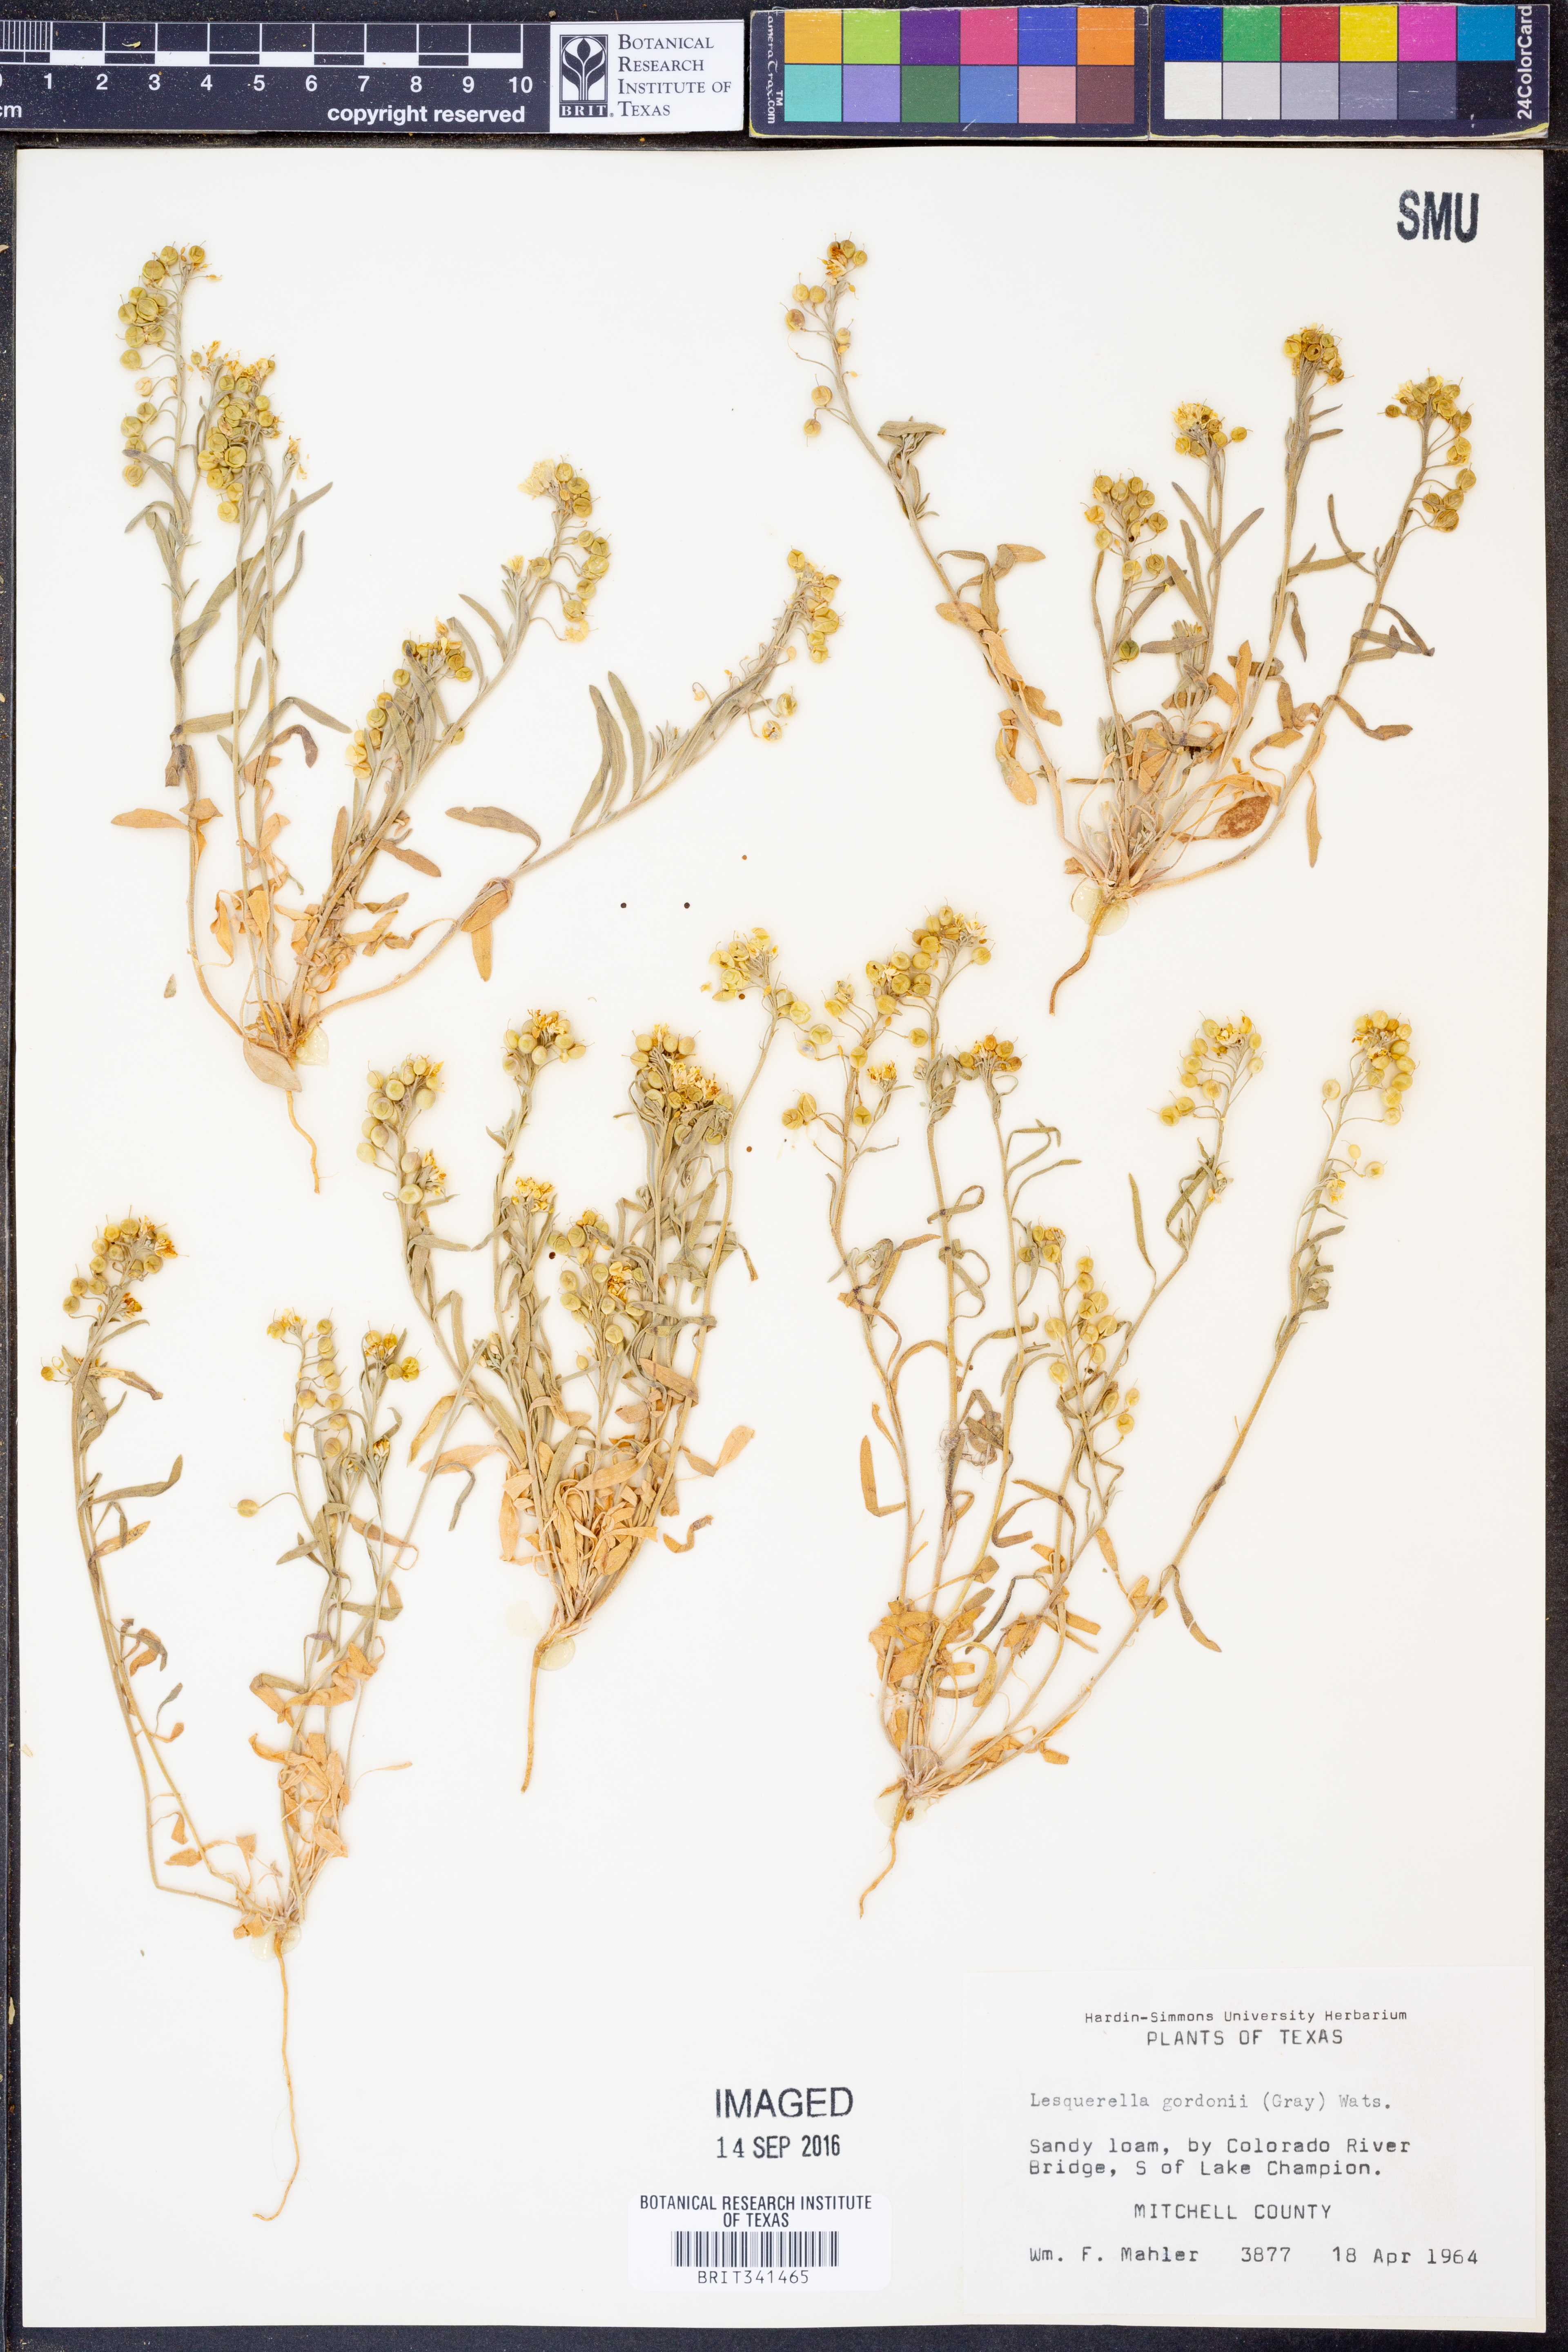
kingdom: Plantae
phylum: Tracheophyta
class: Magnoliopsida
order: Brassicales
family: Brassicaceae
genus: Physaria
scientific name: Physaria gordonii
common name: Gordon's bladderpod
